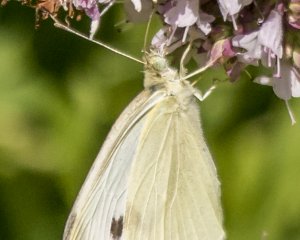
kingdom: Animalia
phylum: Arthropoda
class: Insecta
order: Lepidoptera
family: Pieridae
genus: Pieris
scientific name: Pieris rapae
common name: Cabbage White
